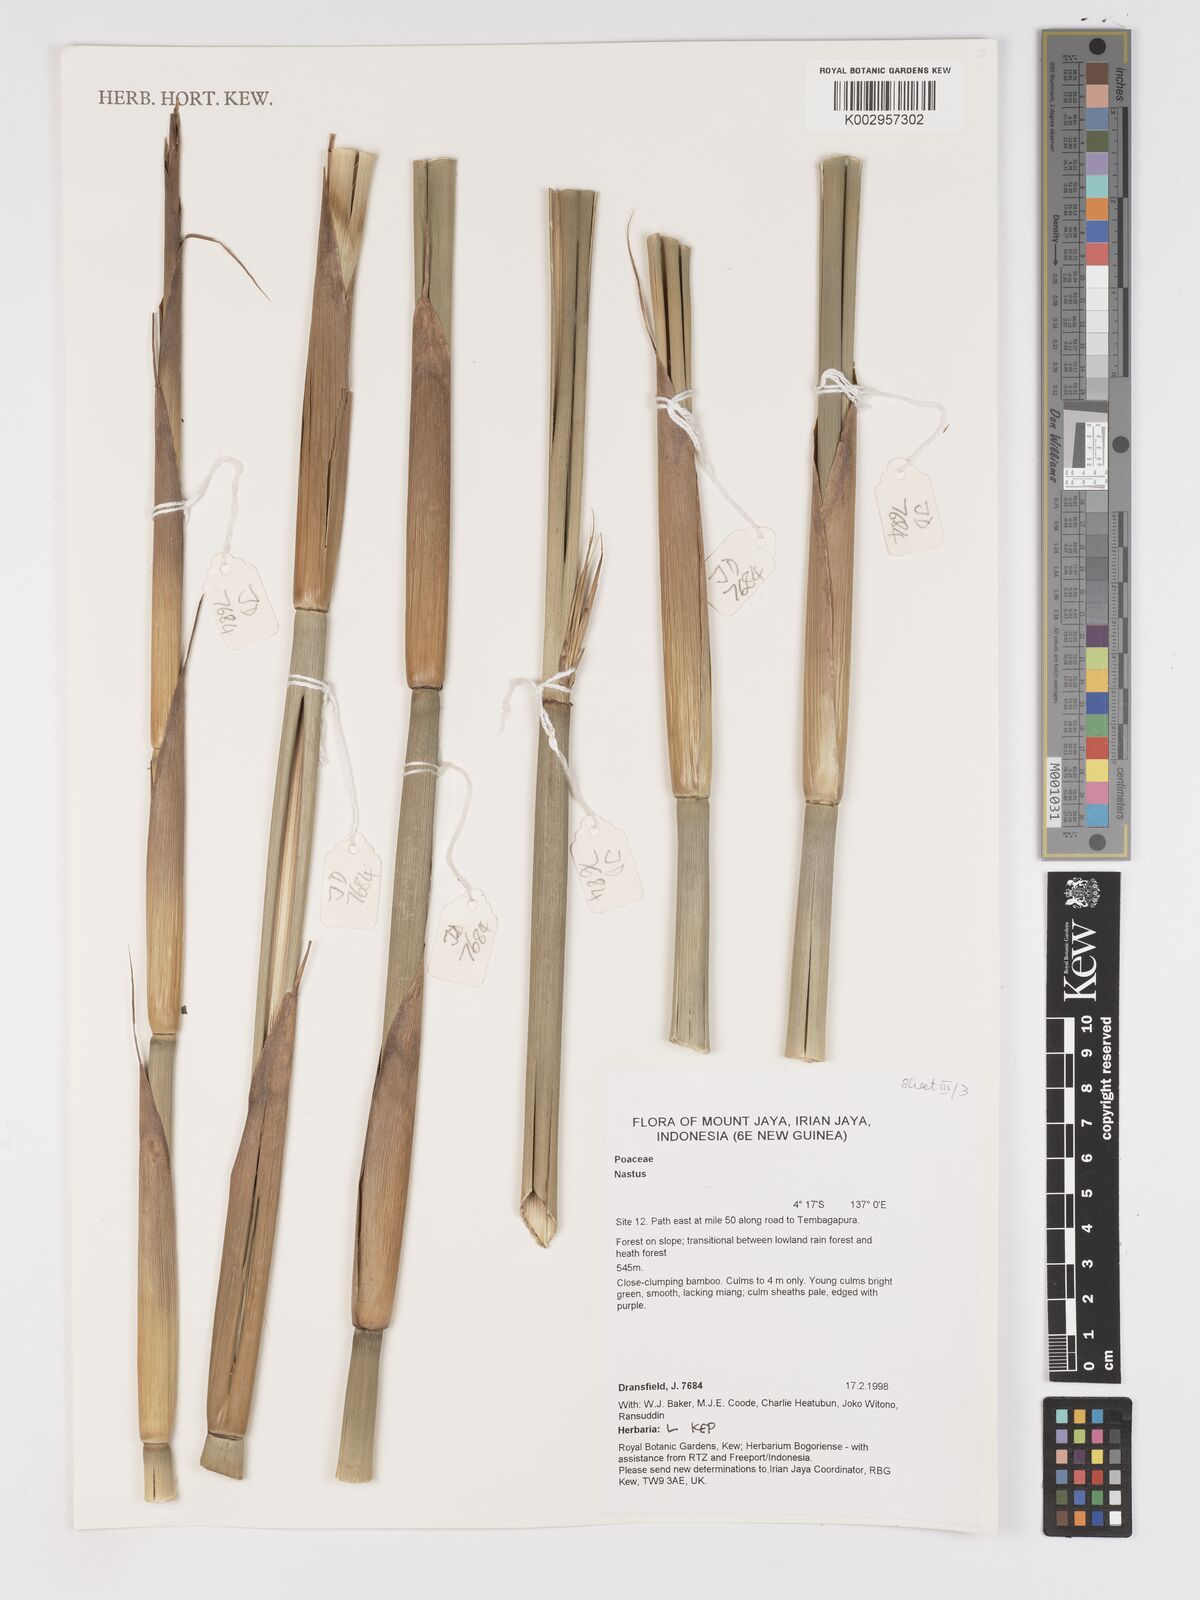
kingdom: Plantae
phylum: Tracheophyta
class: Liliopsida
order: Poales
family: Poaceae
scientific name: Poaceae
